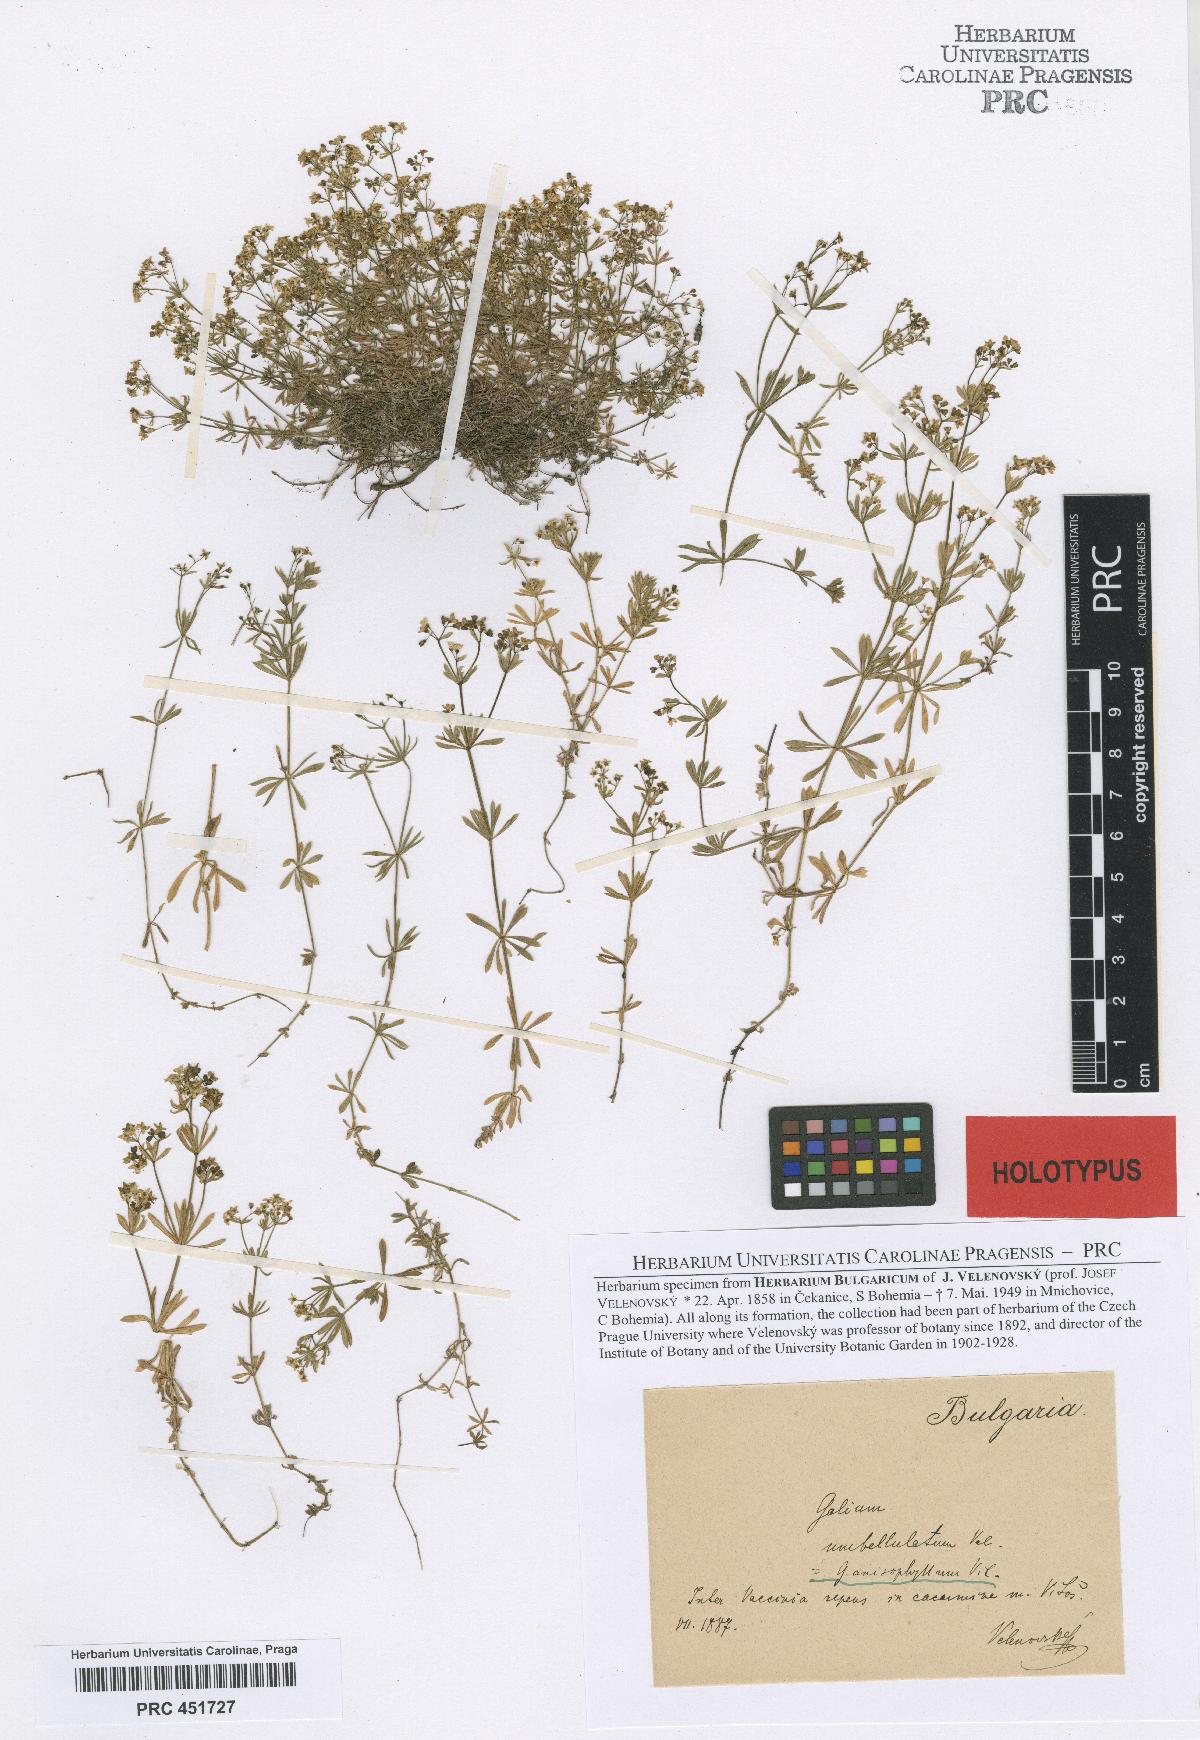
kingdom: Plantae
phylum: Tracheophyta
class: Magnoliopsida
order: Gentianales
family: Rubiaceae
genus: Galium
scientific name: Galium anisophyllon
